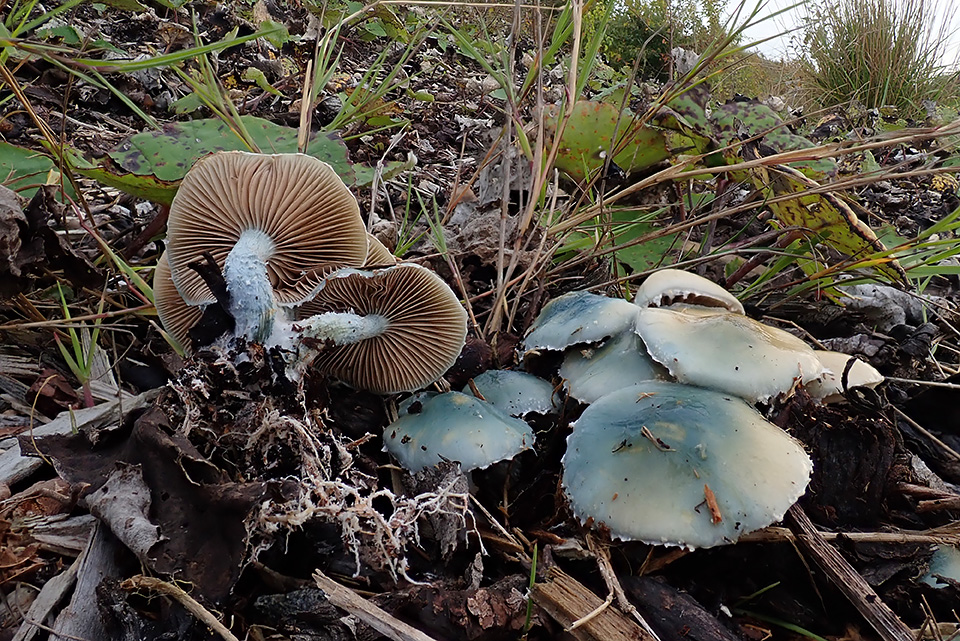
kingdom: Fungi
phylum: Basidiomycota
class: Agaricomycetes
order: Agaricales
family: Strophariaceae
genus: Stropharia
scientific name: Stropharia cyanea
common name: blågrøn bredblad
